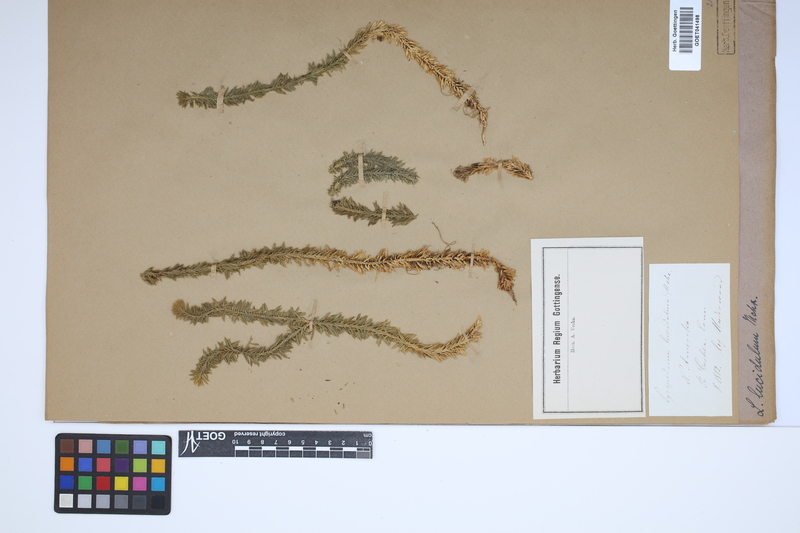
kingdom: Plantae
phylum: Tracheophyta
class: Lycopodiopsida
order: Lycopodiales
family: Lycopodiaceae
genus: Huperzia
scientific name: Huperzia lucidula
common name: Shining clubmoss
